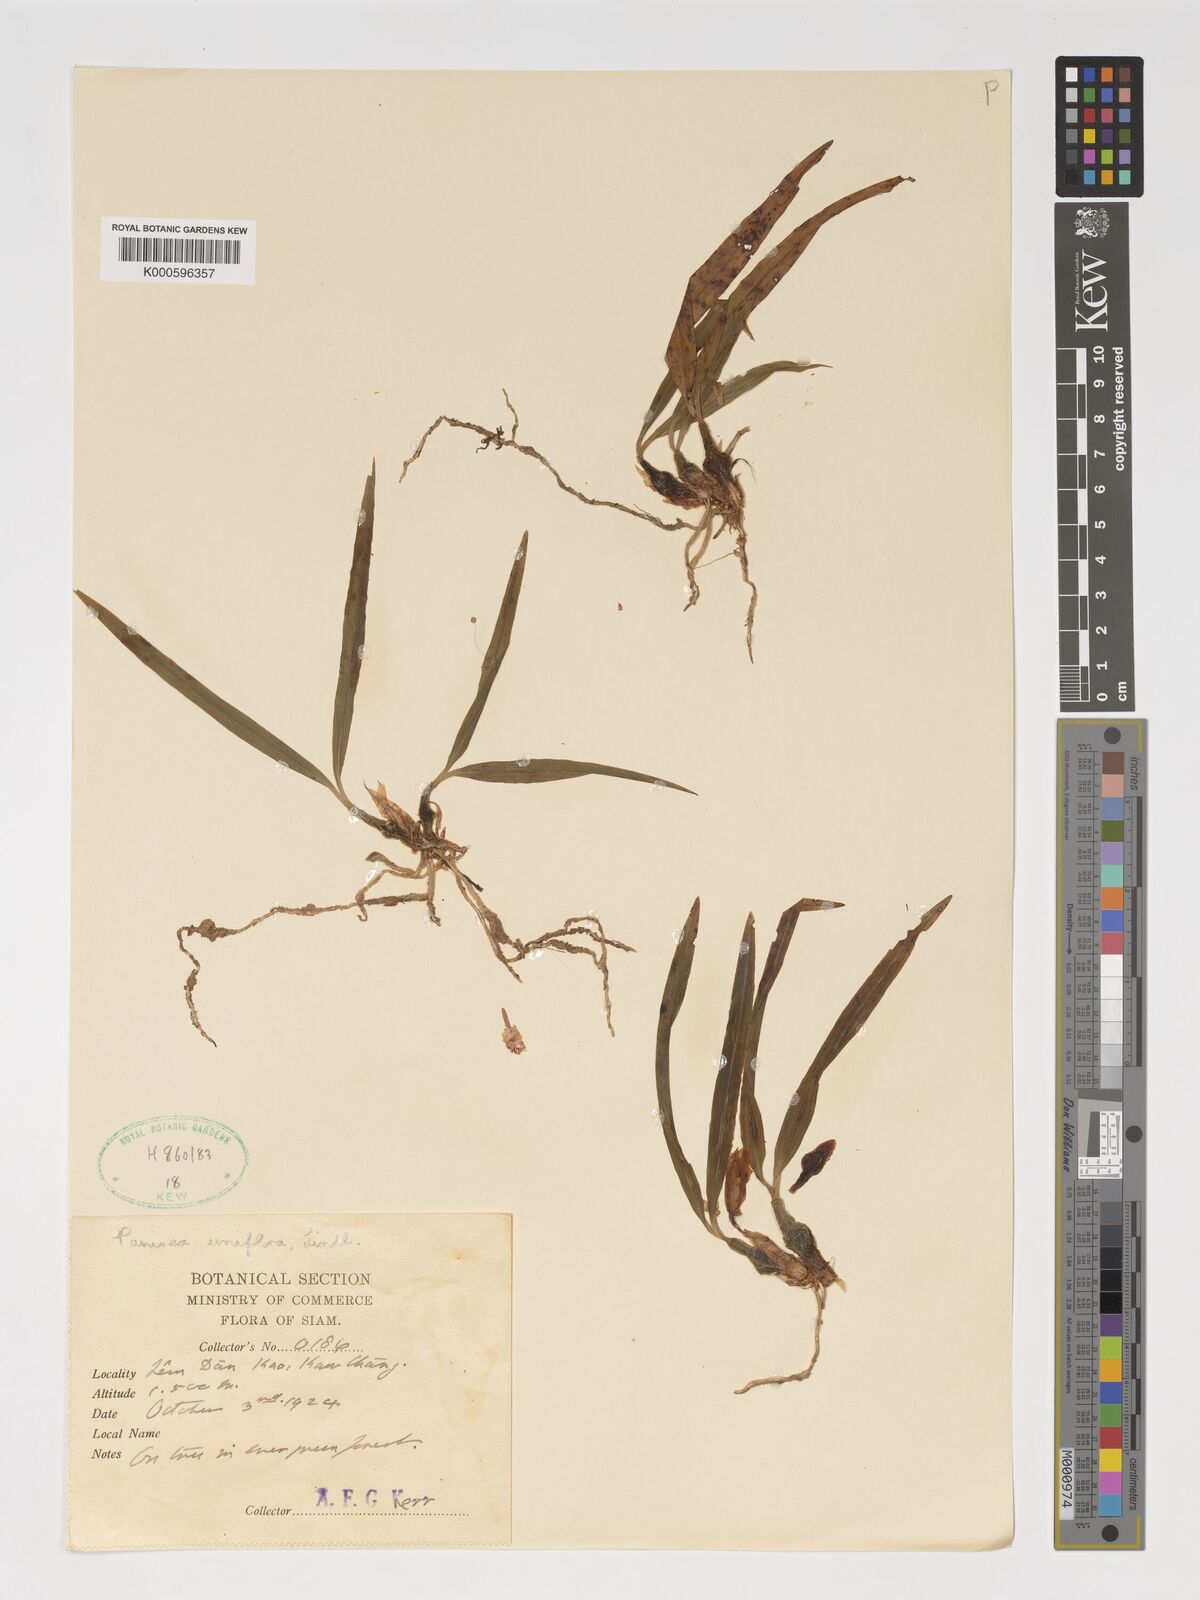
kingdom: Plantae
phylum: Tracheophyta
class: Liliopsida
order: Asparagales
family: Orchidaceae
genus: Coelogyne
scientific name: Coelogyne uniflora
